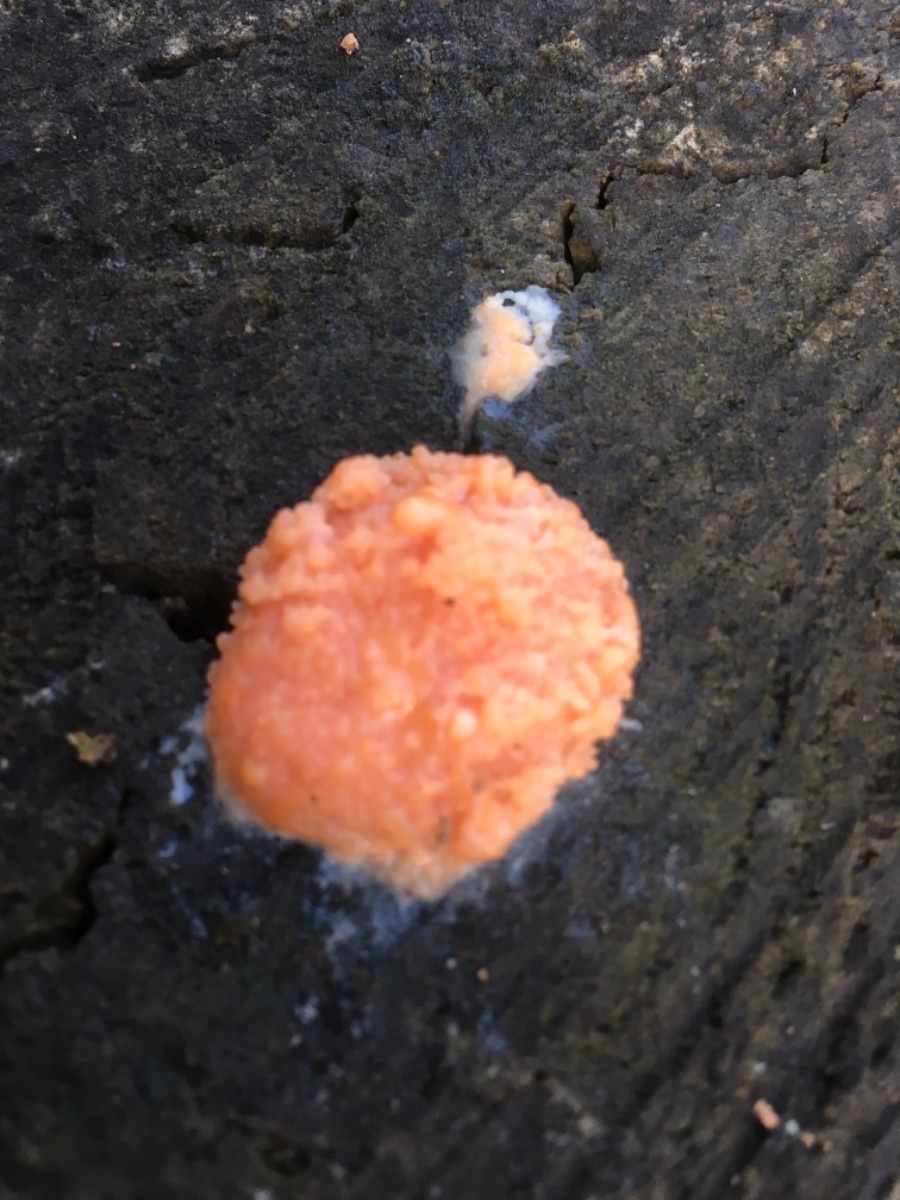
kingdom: Protozoa
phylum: Mycetozoa
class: Myxomycetes
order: Cribrariales
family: Tubiferaceae
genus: Tubifera
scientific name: Tubifera ferruginosa
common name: kanel-støvrør
